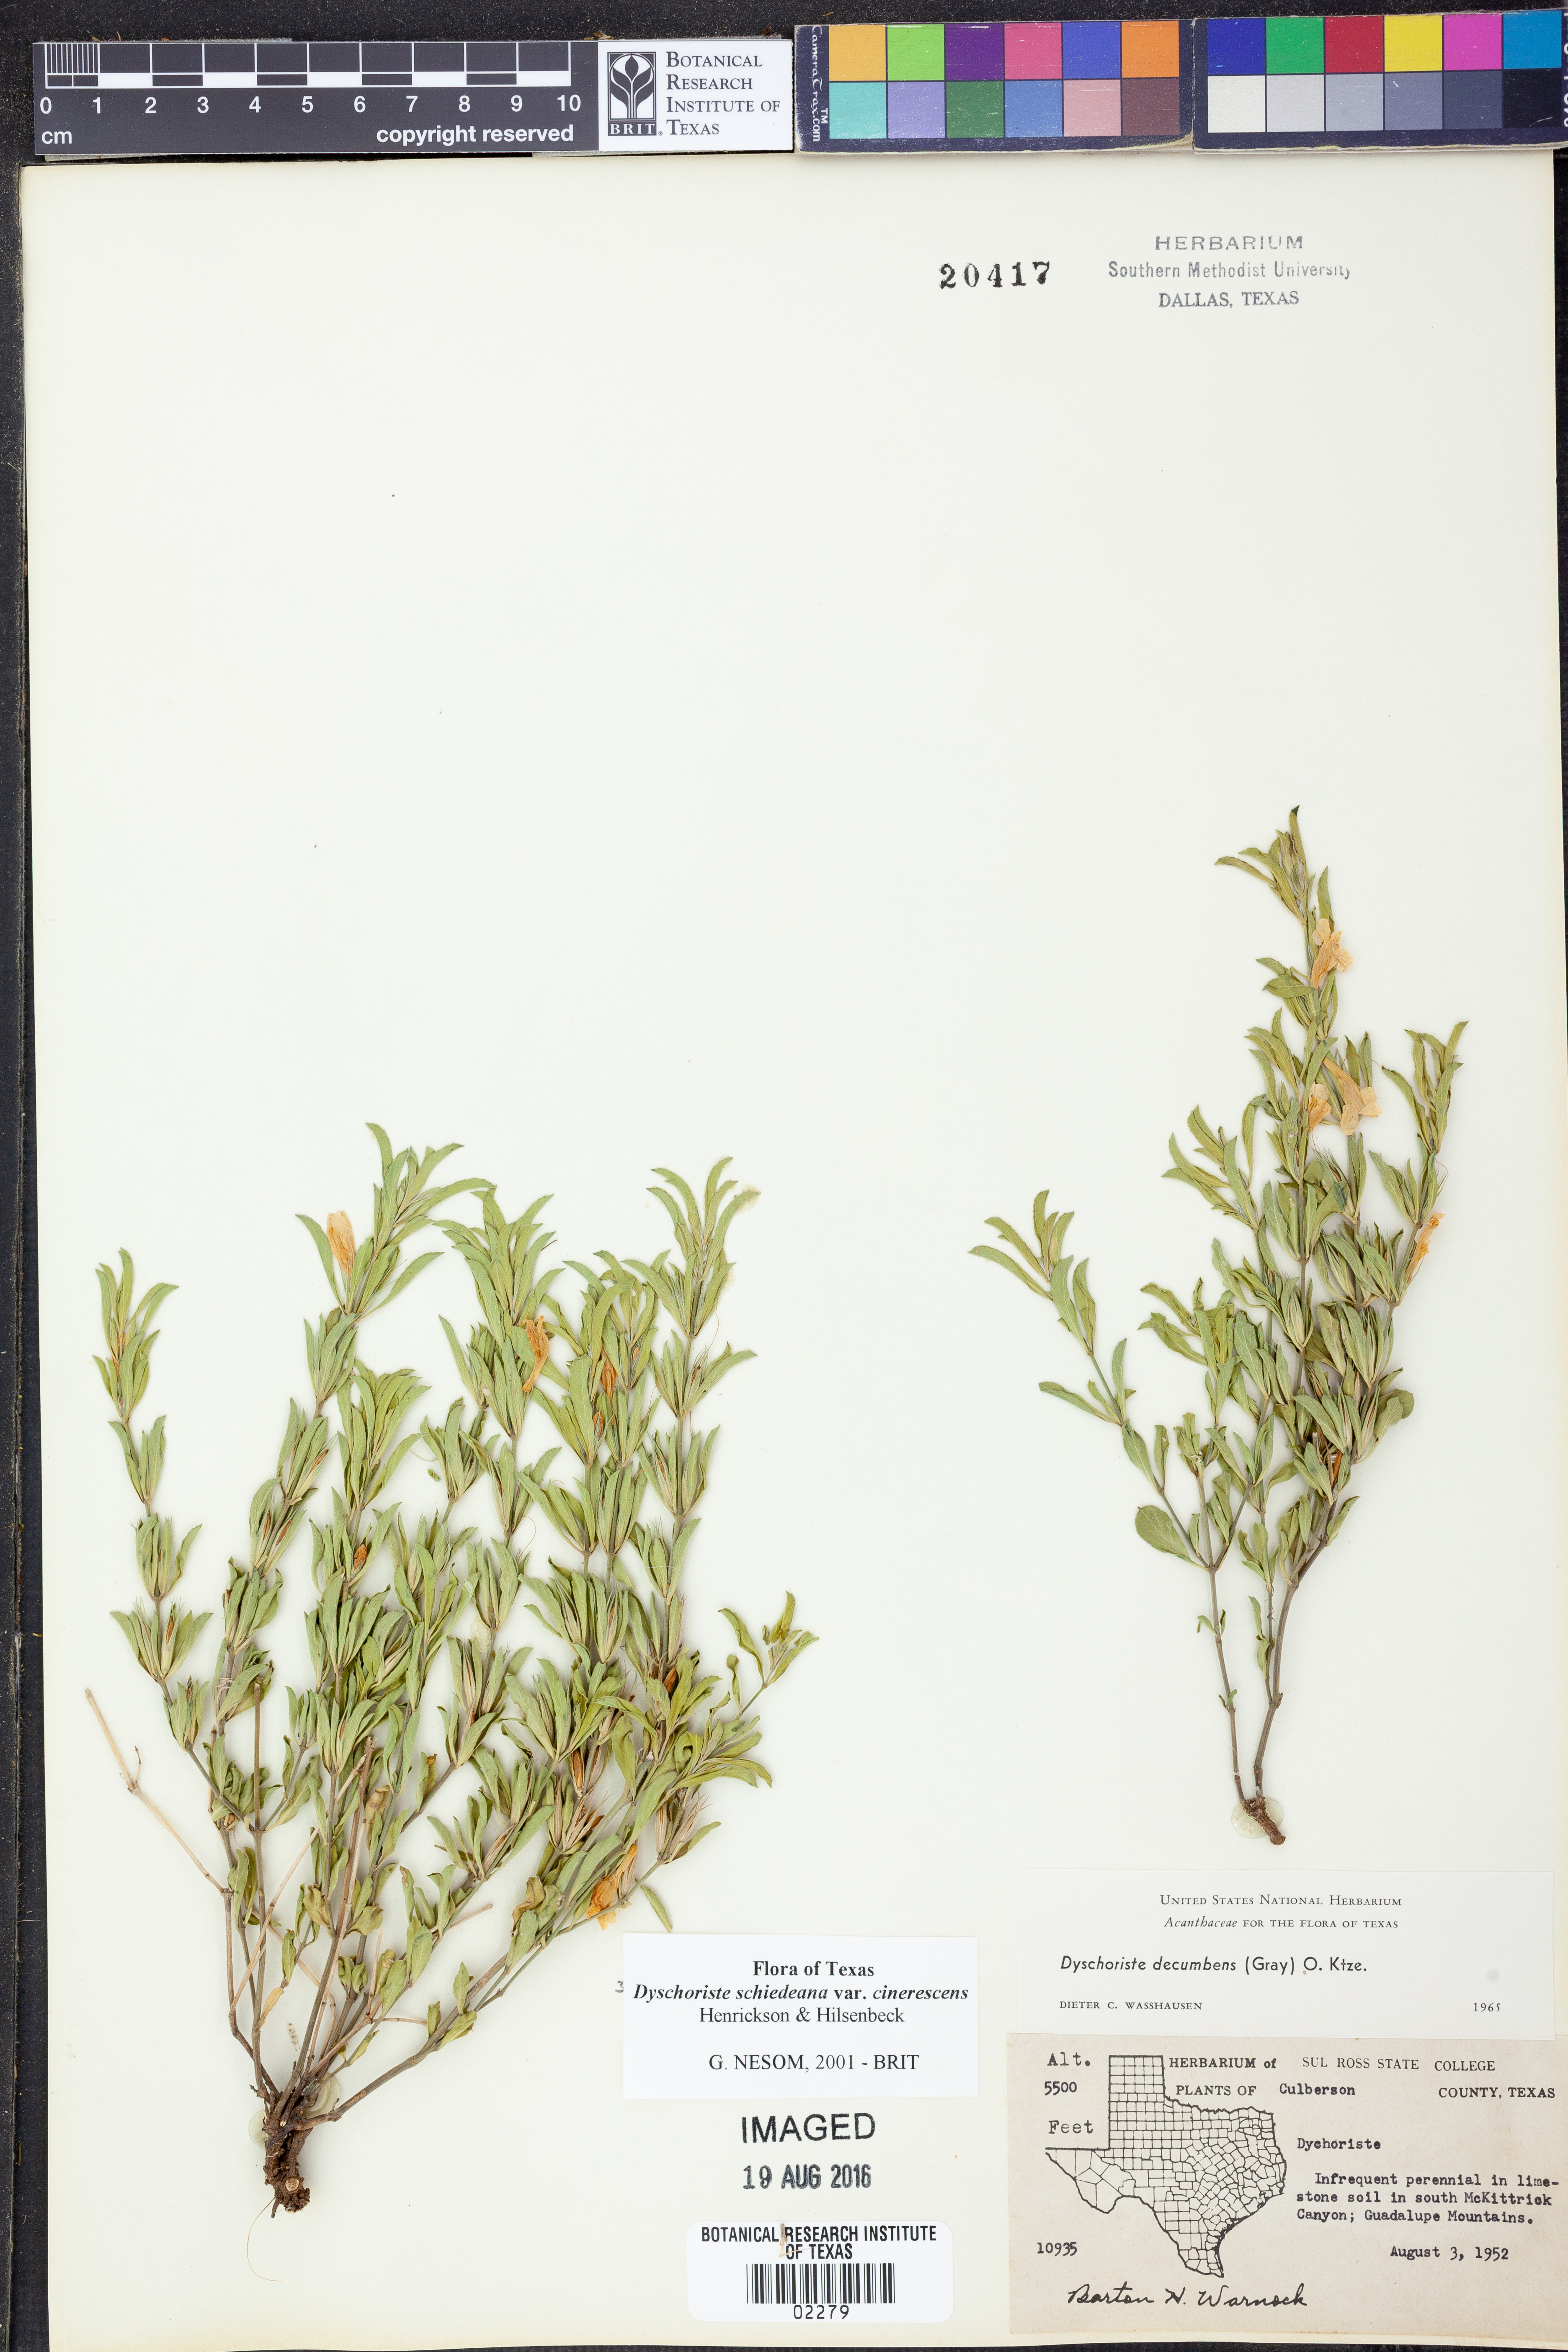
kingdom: Plantae
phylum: Tracheophyta
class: Magnoliopsida
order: Lamiales
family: Acanthaceae
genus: Dyschoriste
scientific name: Dyschoriste cinerascens
